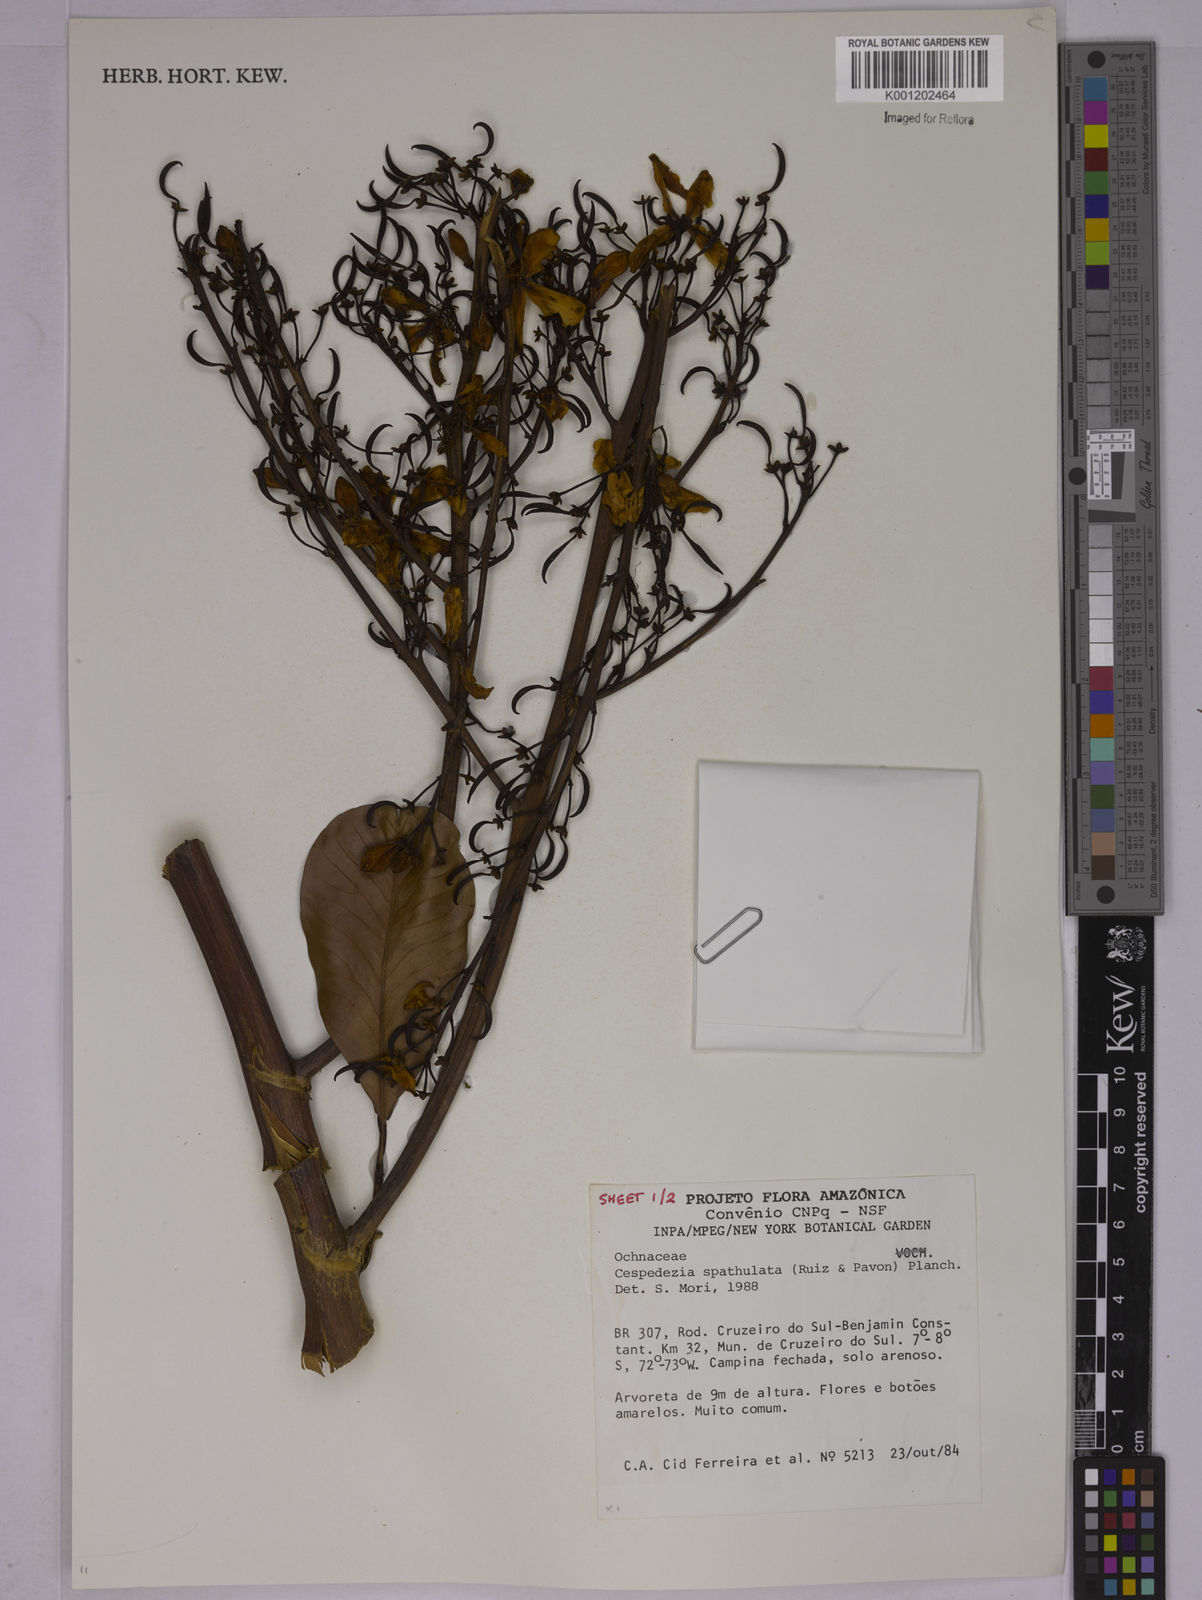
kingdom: Plantae
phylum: Tracheophyta
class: Magnoliopsida
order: Malpighiales
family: Ochnaceae
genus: Cespedesia
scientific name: Cespedesia spathulata
